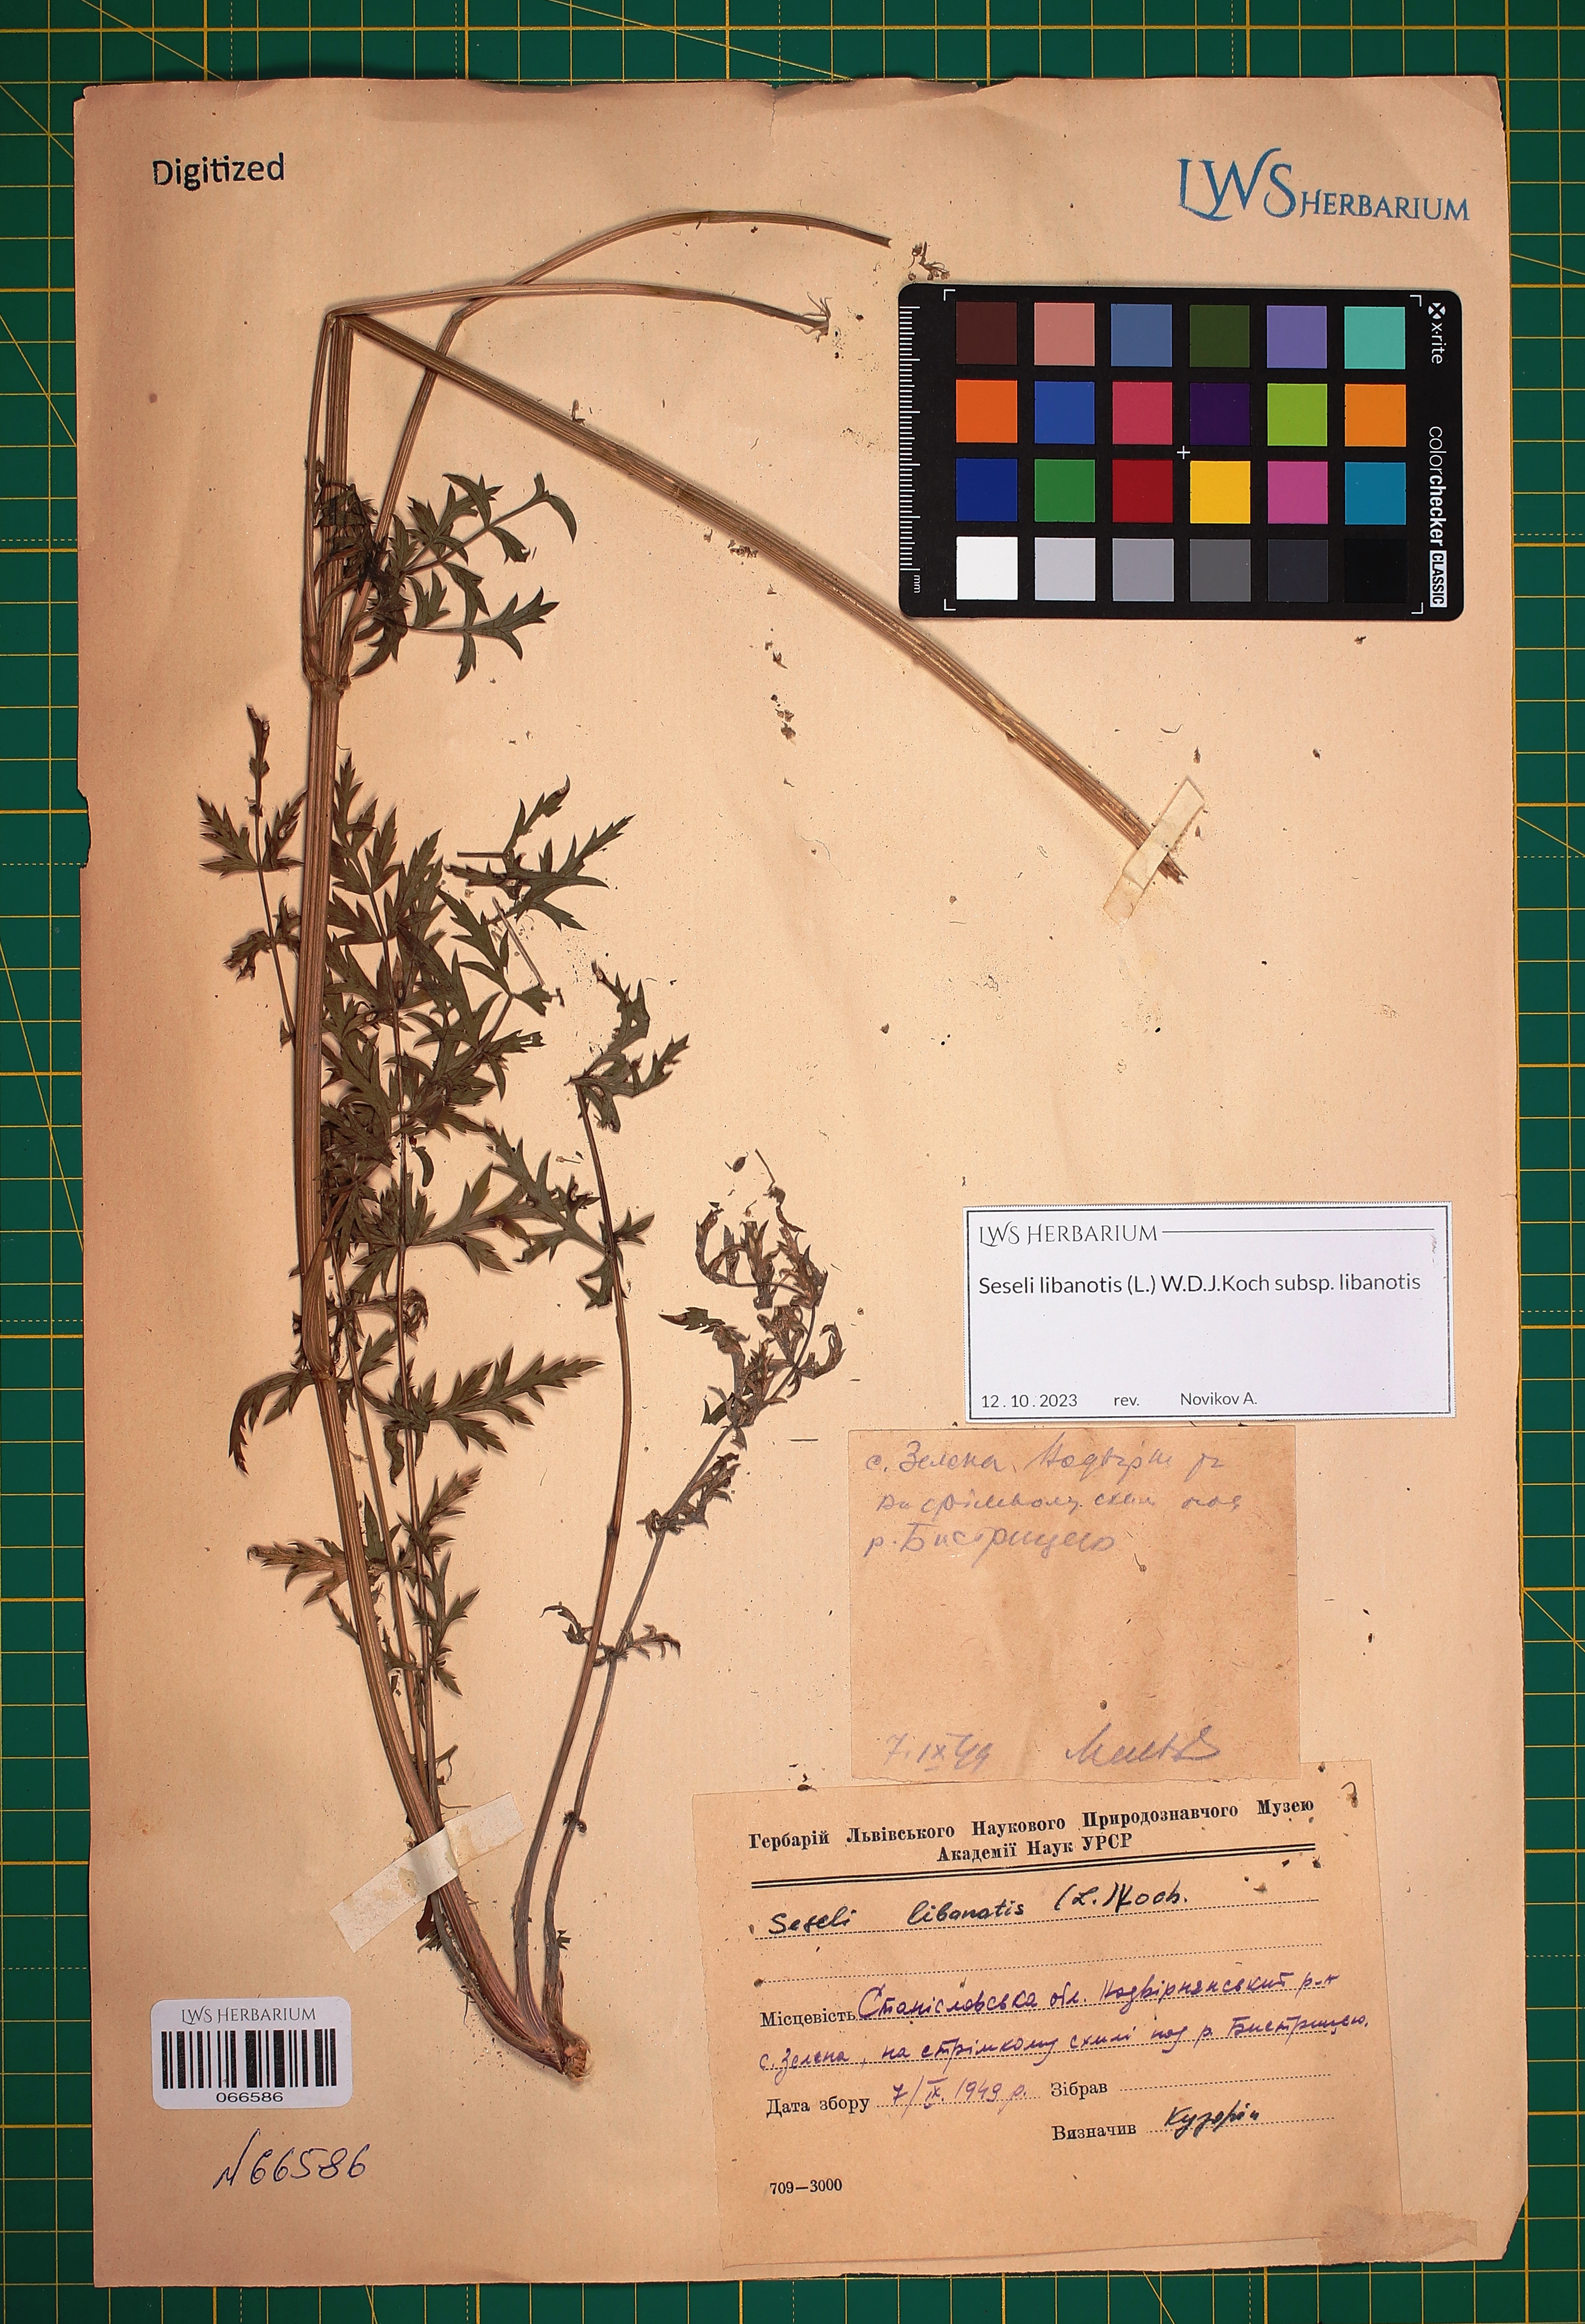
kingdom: Plantae
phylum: Tracheophyta
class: Magnoliopsida
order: Apiales
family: Apiaceae
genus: Seseli
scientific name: Seseli libanotis
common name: Mooncarrot
